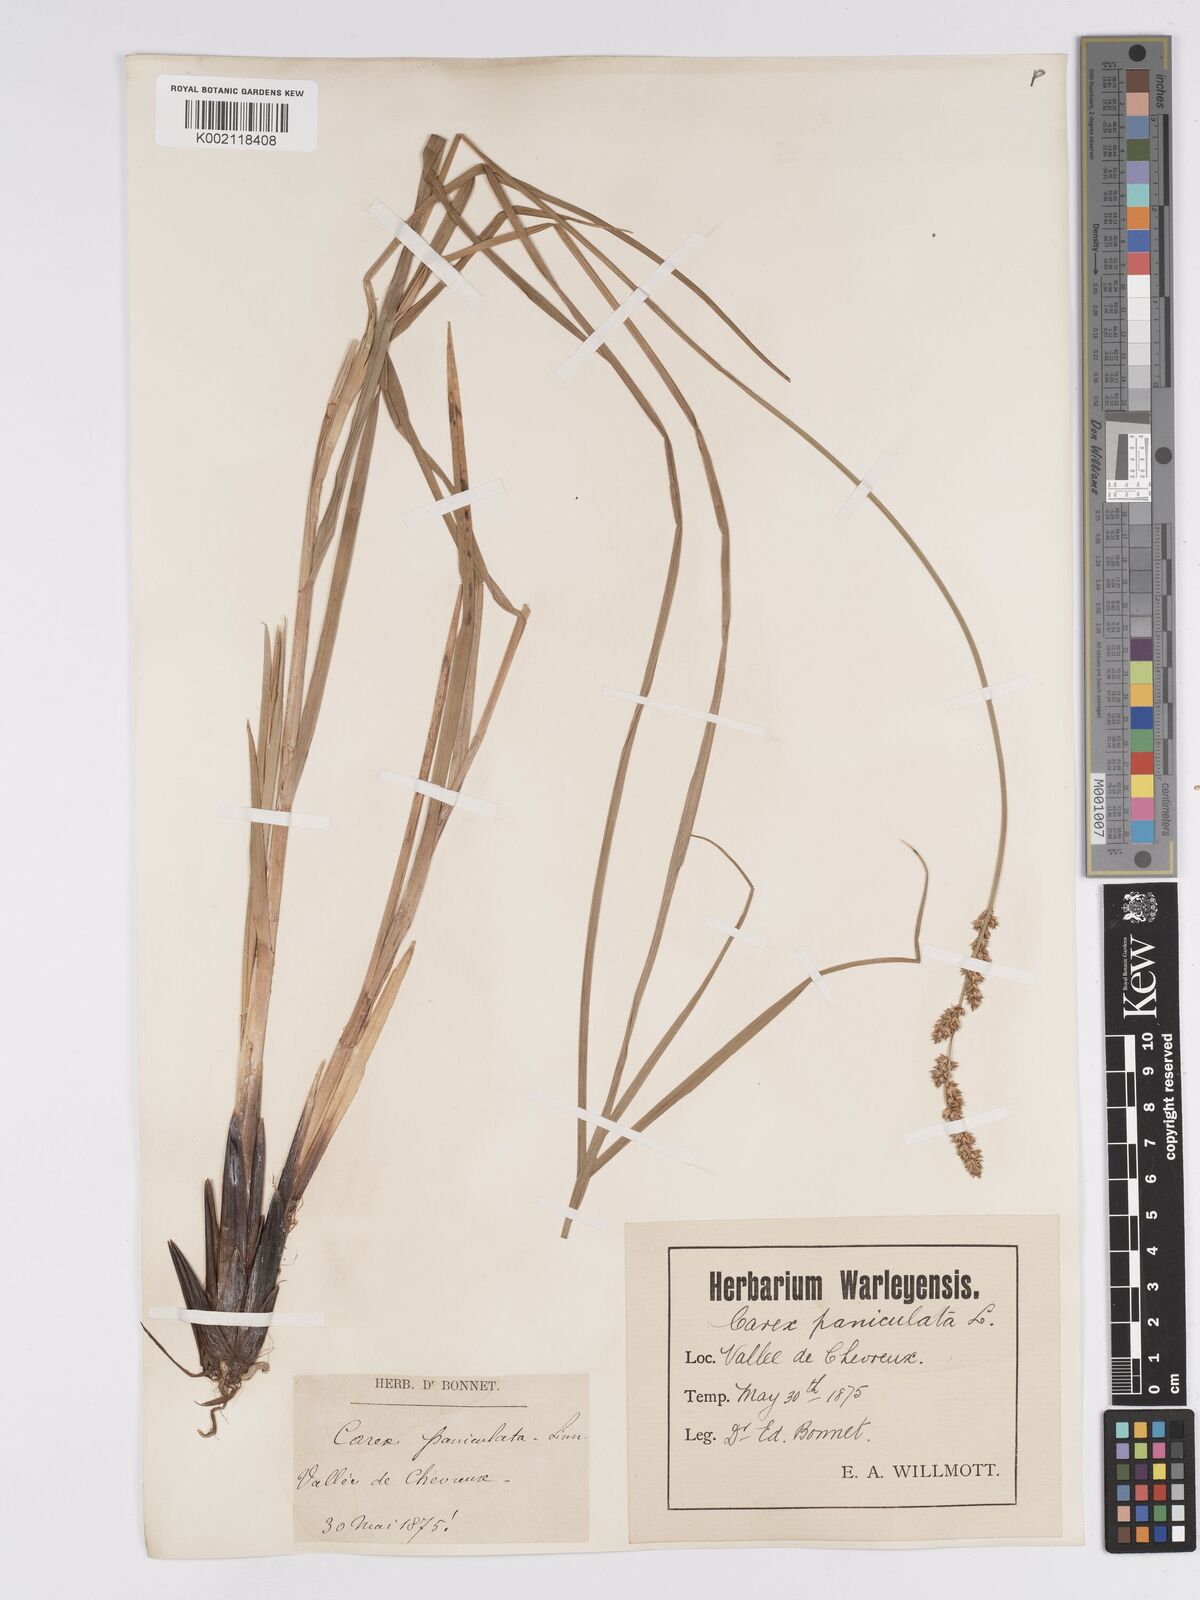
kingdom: Plantae
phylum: Tracheophyta
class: Liliopsida
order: Poales
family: Cyperaceae
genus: Carex
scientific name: Carex paniculata
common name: Greater tussock-sedge
